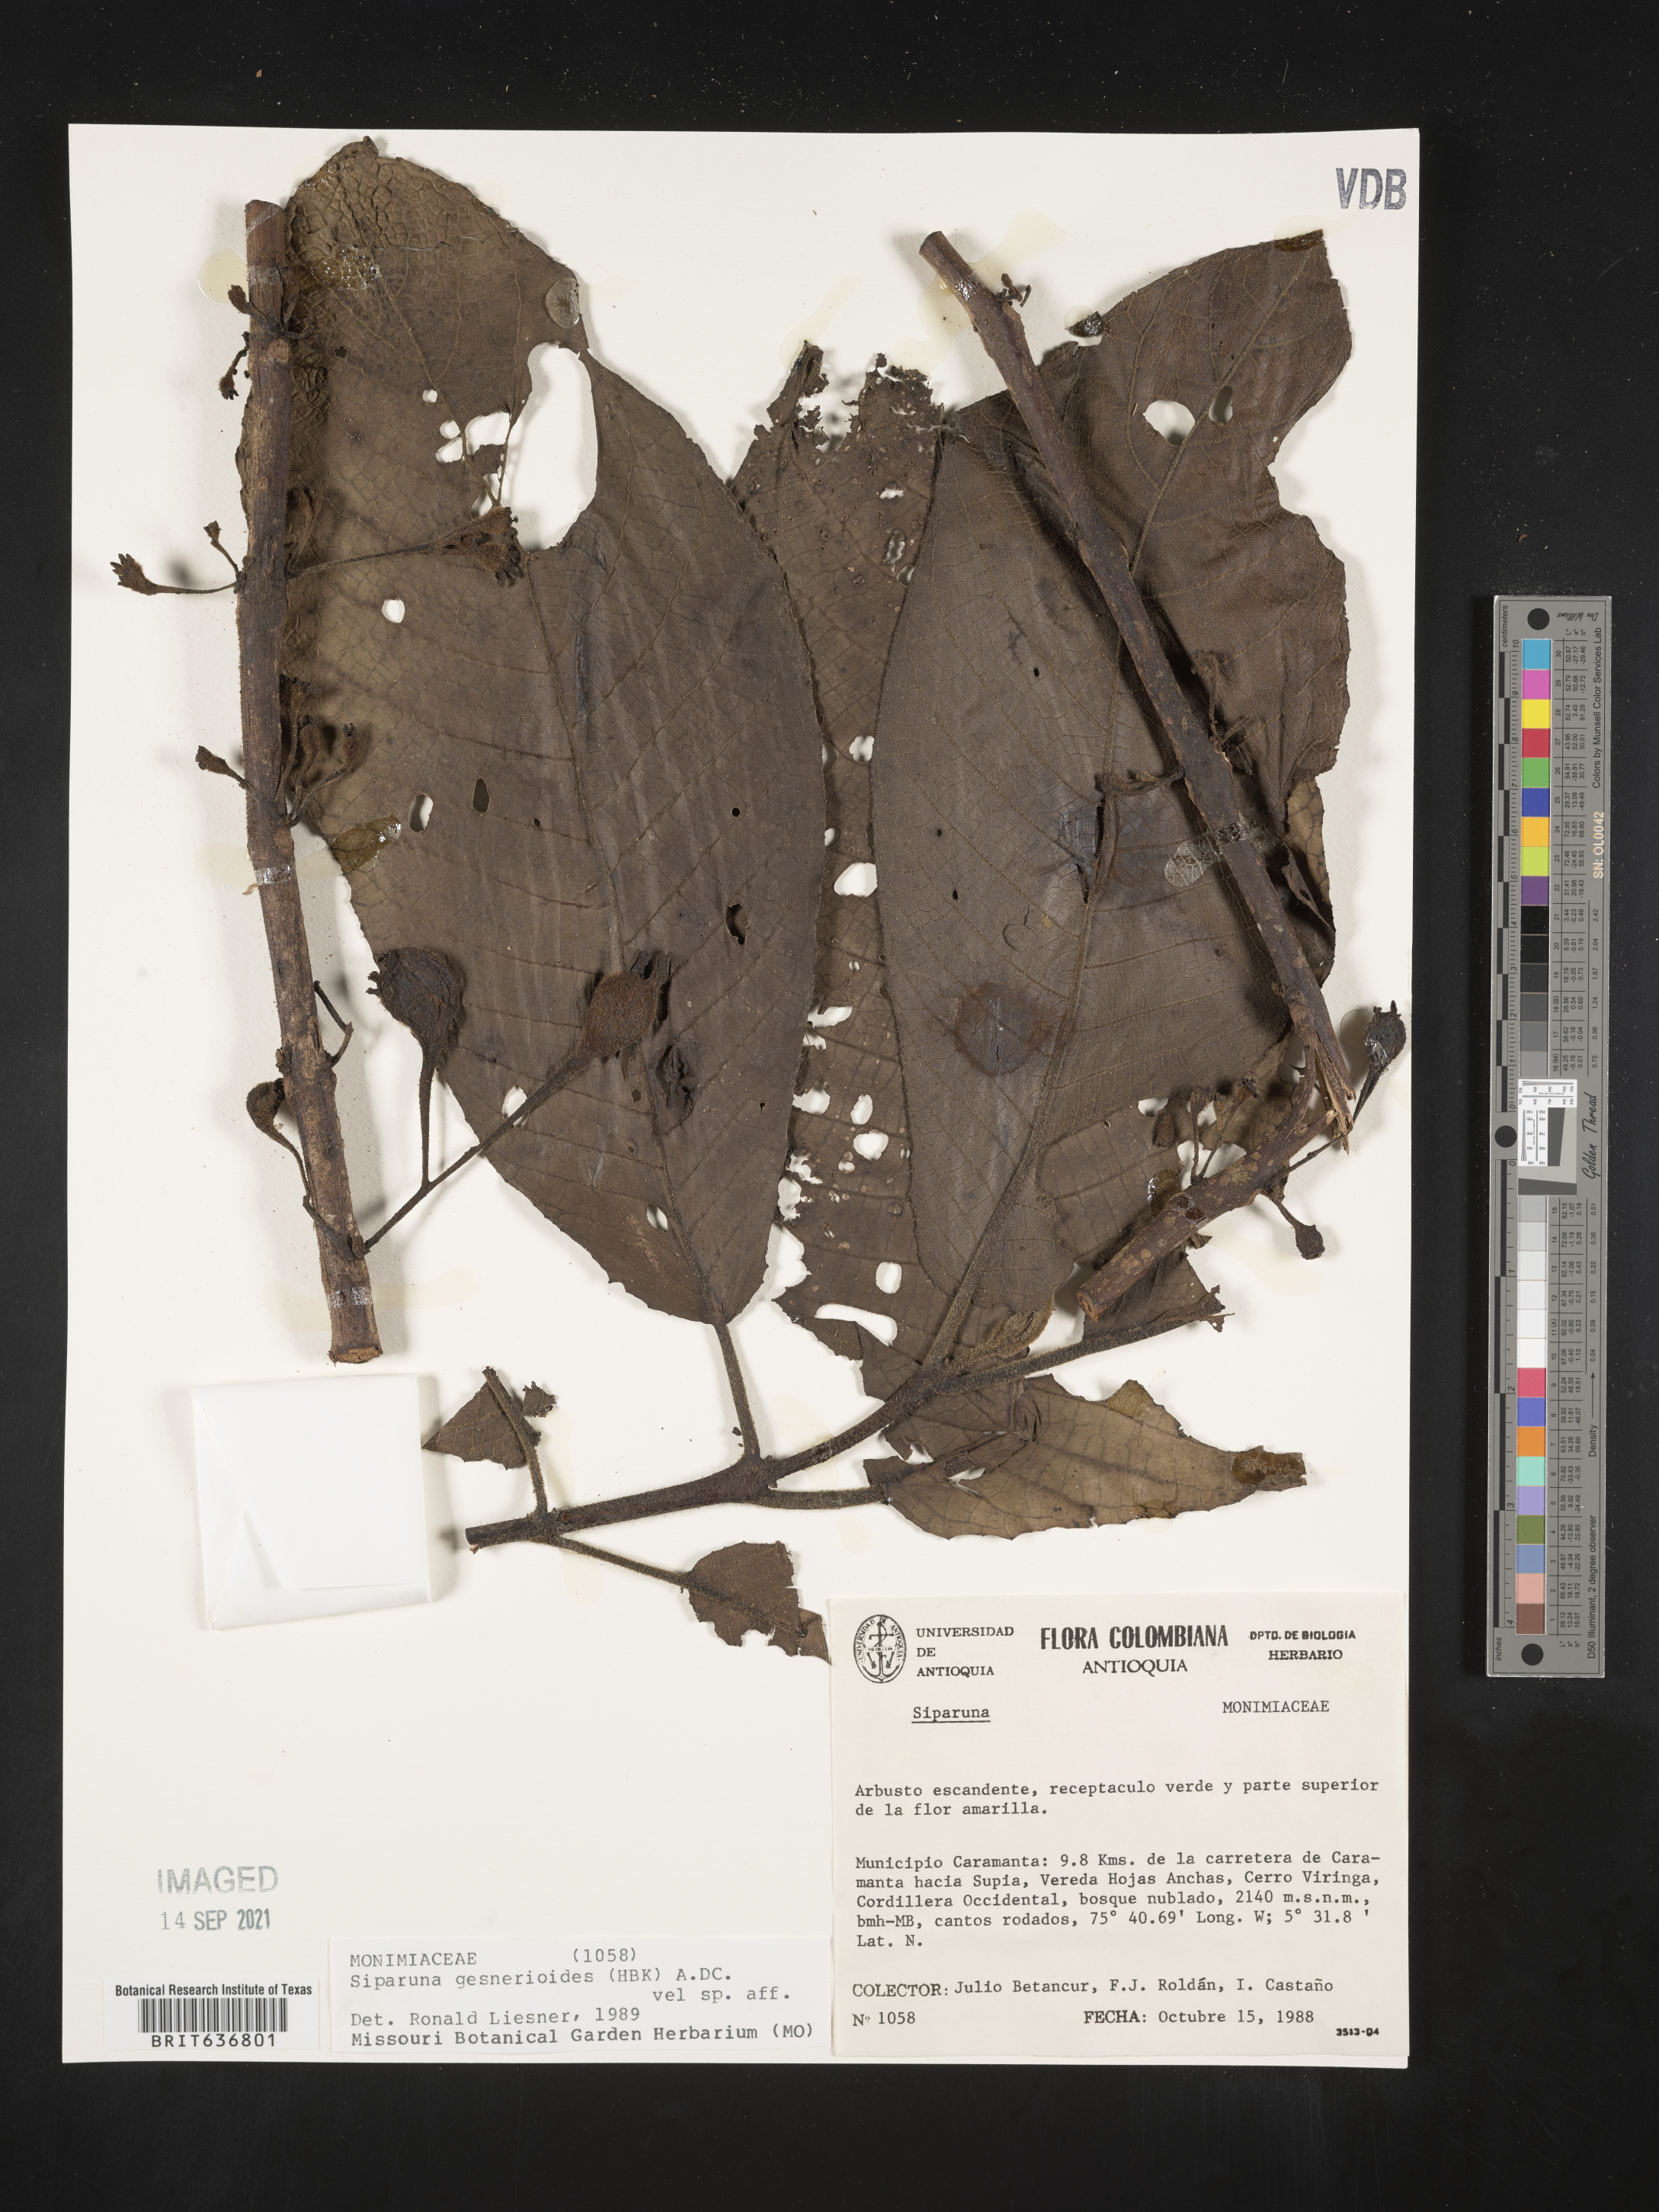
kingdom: Plantae
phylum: Tracheophyta
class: Magnoliopsida
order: Laurales
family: Siparunaceae
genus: Siparuna
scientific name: Siparuna
